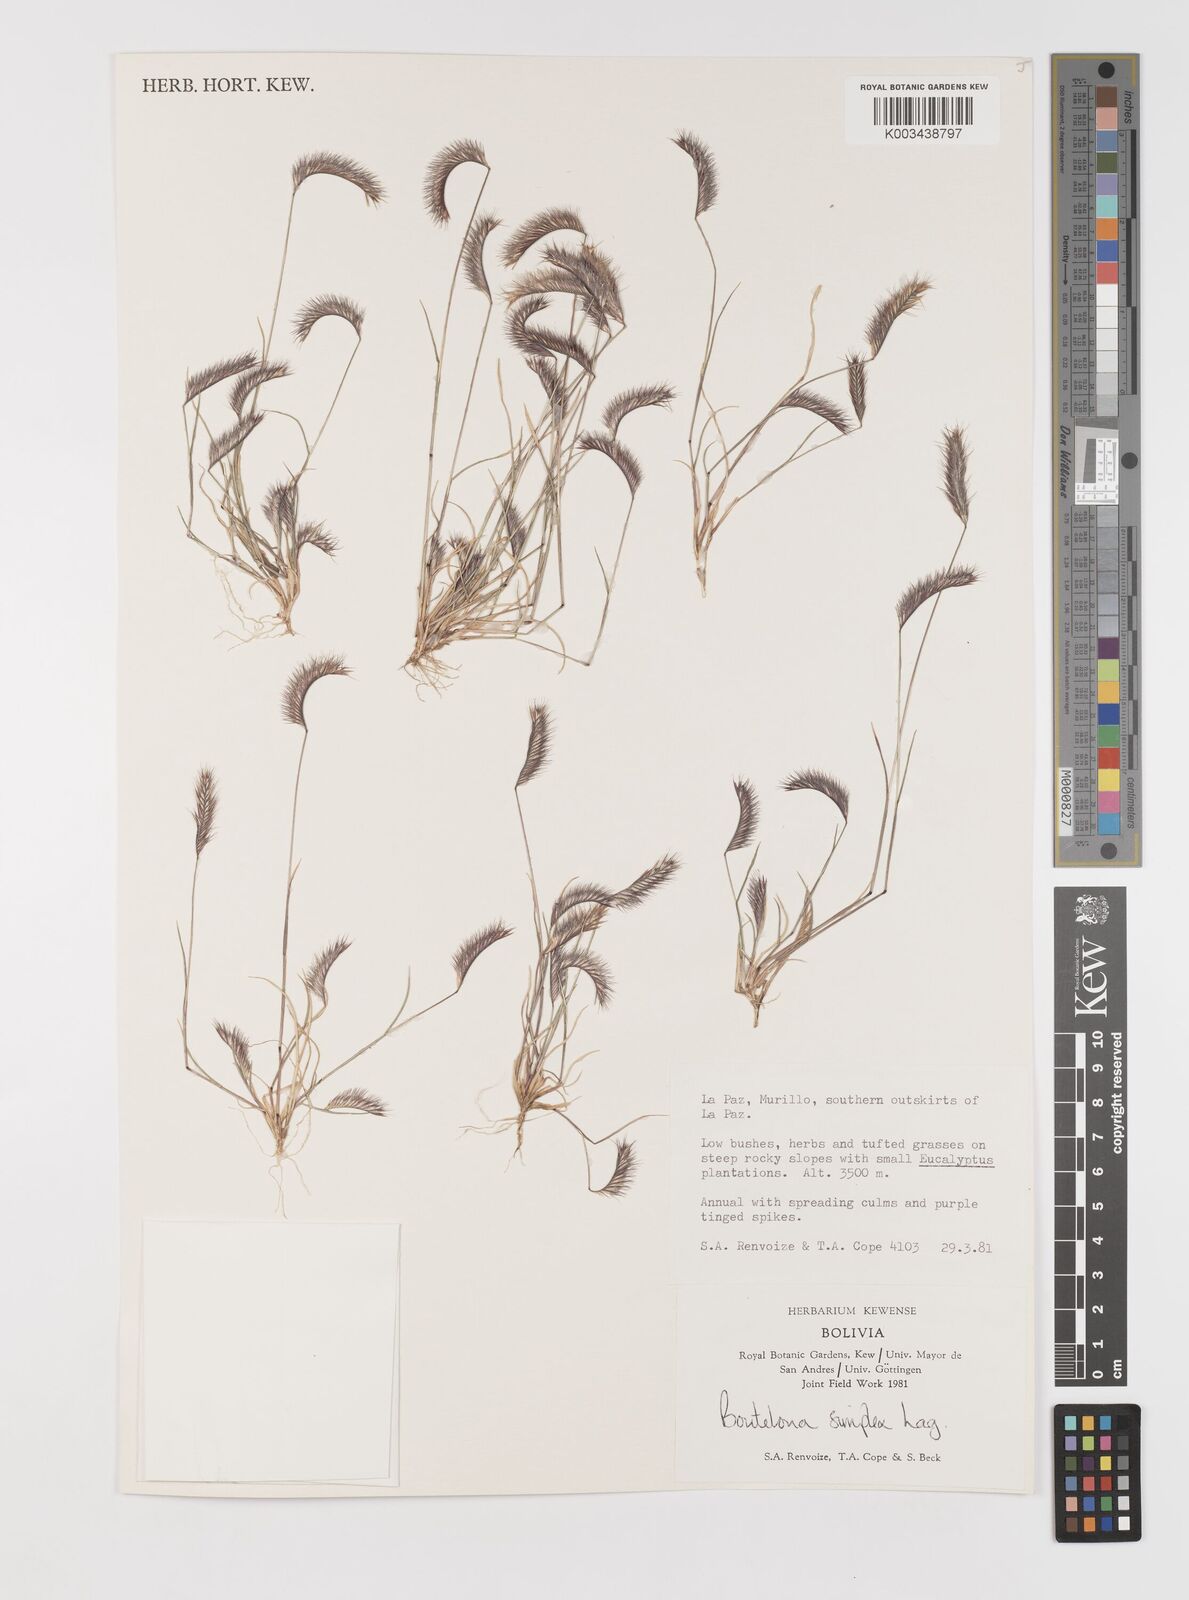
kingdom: Plantae
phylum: Tracheophyta
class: Liliopsida
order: Poales
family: Poaceae
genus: Bouteloua
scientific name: Bouteloua simplex
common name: Mat grama
